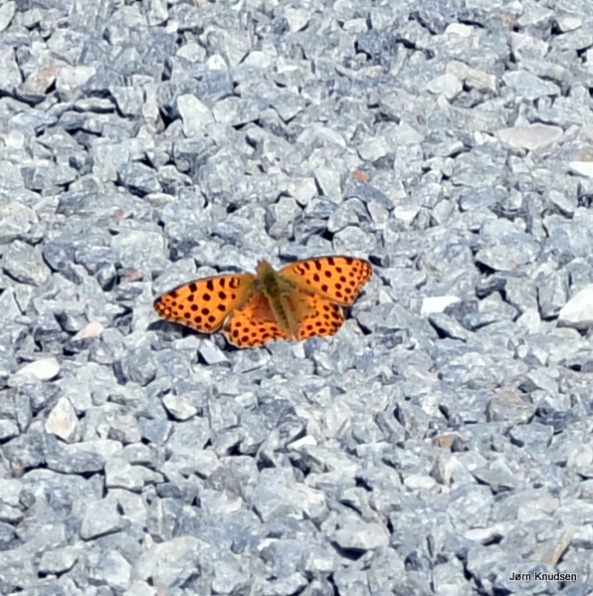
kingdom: Animalia
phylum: Arthropoda
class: Insecta
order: Lepidoptera
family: Nymphalidae
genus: Issoria
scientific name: Issoria lathonia
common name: Storplettet perlemorsommerfugl
